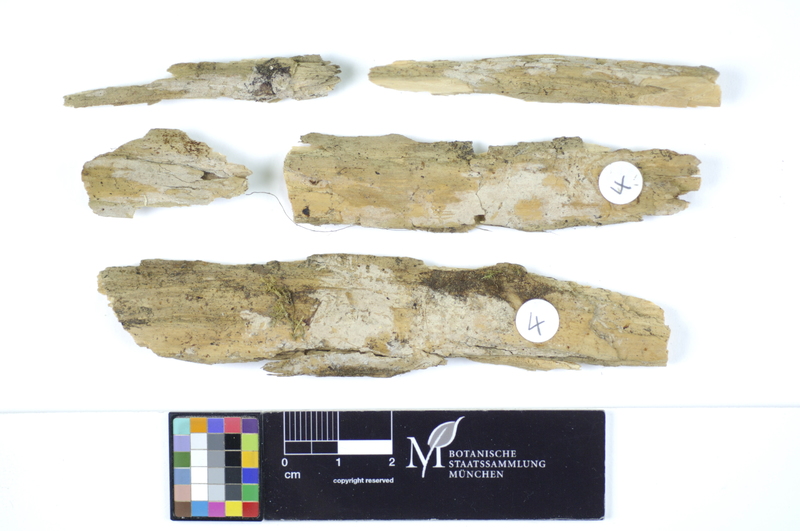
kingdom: Plantae
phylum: Tracheophyta
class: Pinopsida
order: Pinales
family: Pinaceae
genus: Picea
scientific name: Picea
